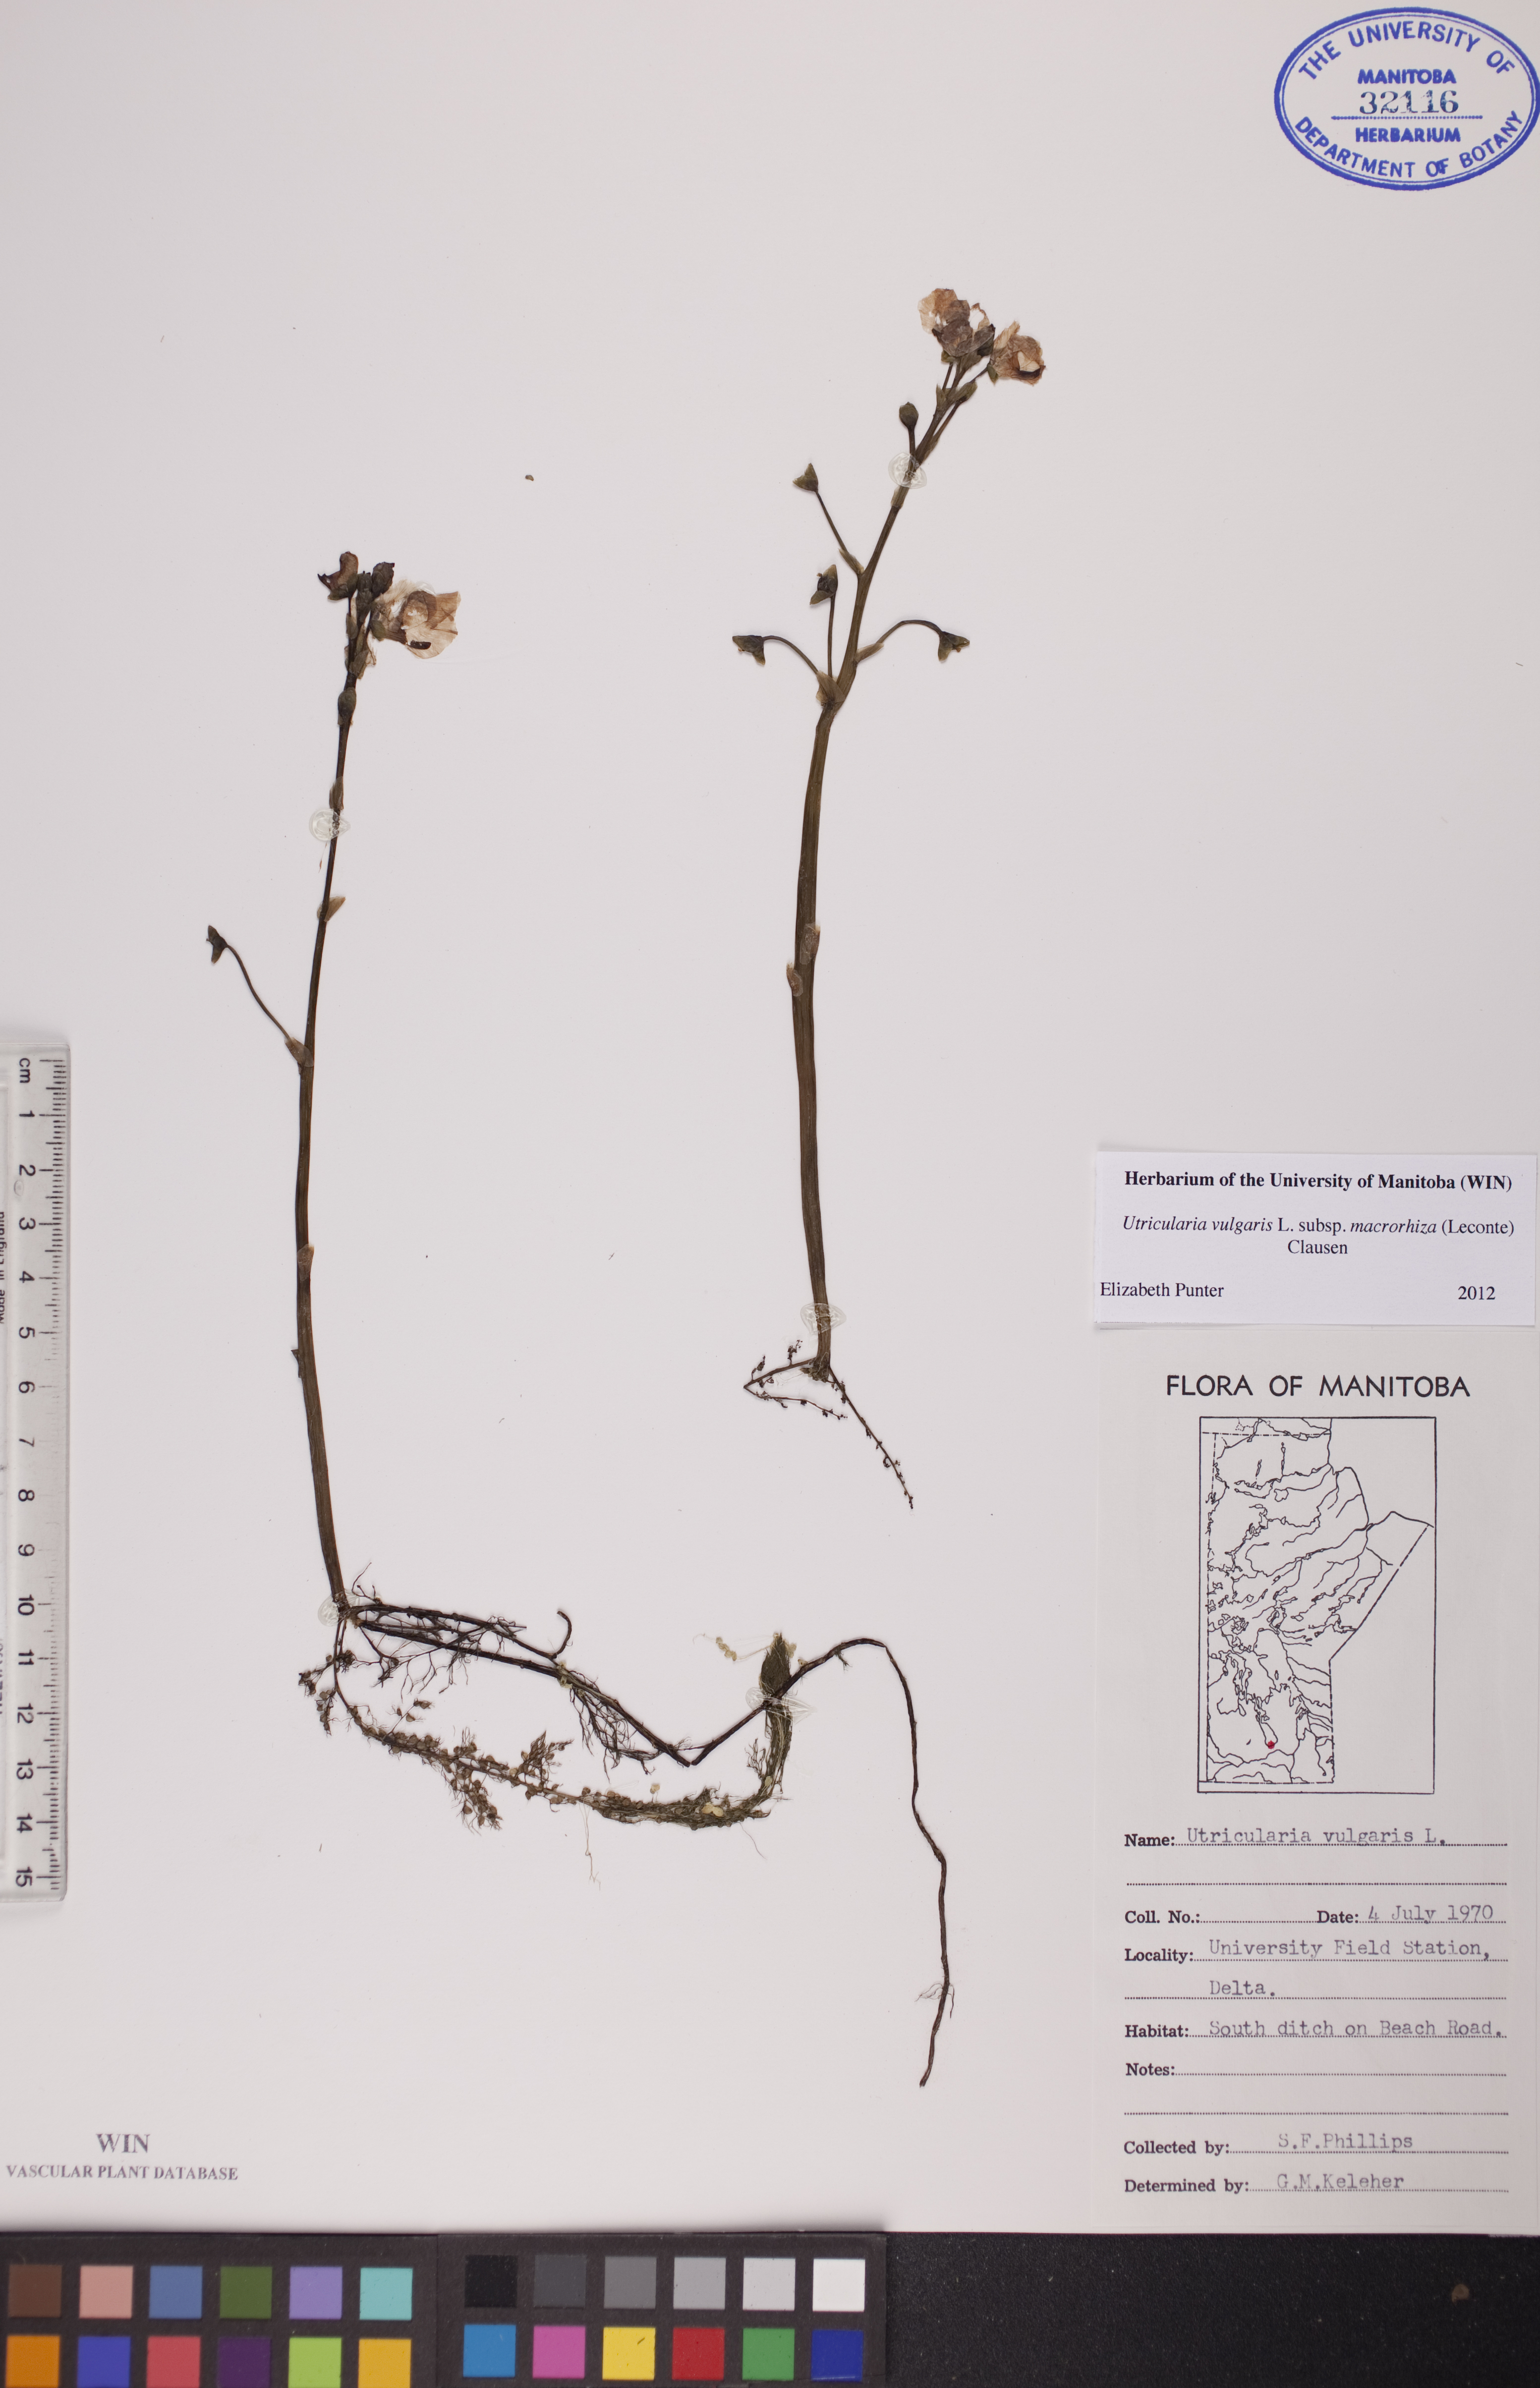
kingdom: Plantae
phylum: Tracheophyta
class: Magnoliopsida
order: Lamiales
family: Lentibulariaceae
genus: Utricularia
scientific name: Utricularia macrorhiza
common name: Common bladderwort
